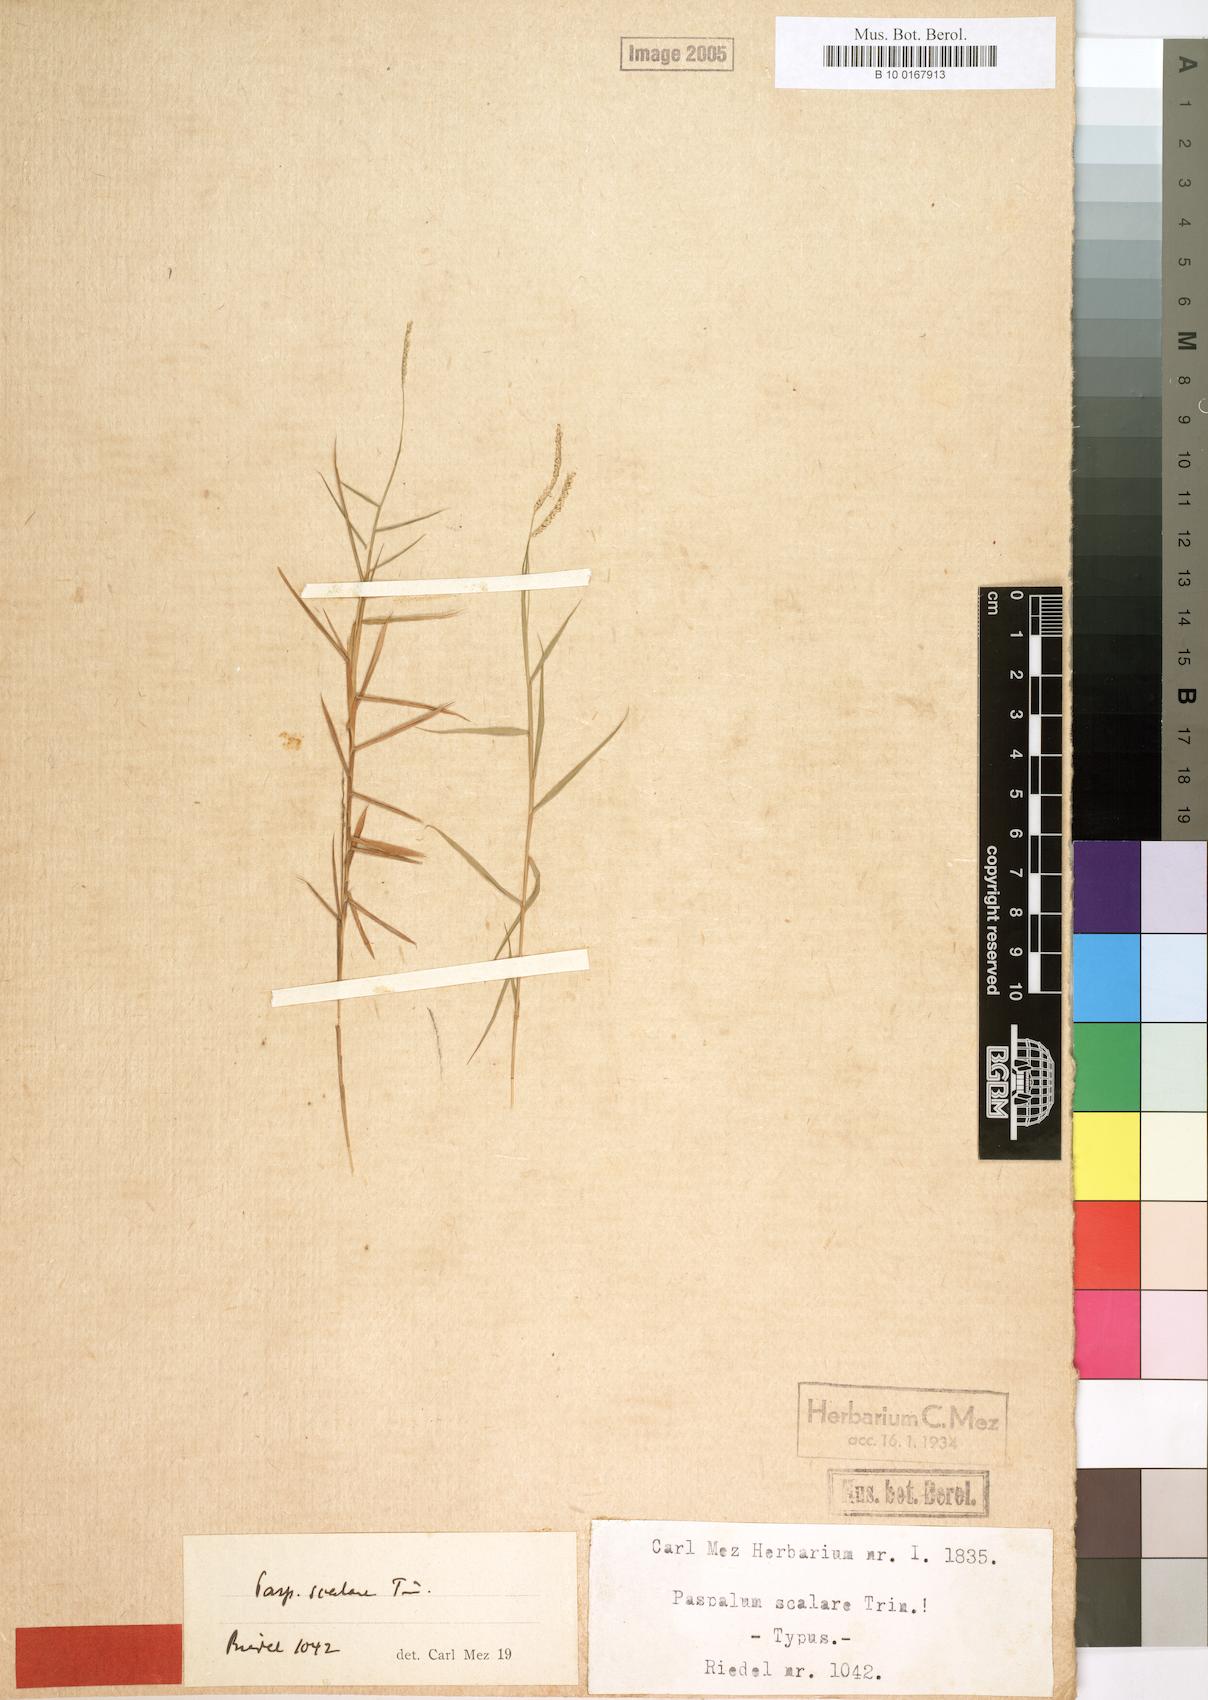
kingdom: Plantae
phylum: Tracheophyta
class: Liliopsida
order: Poales
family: Poaceae
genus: Paspalum
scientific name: Paspalum scalare
